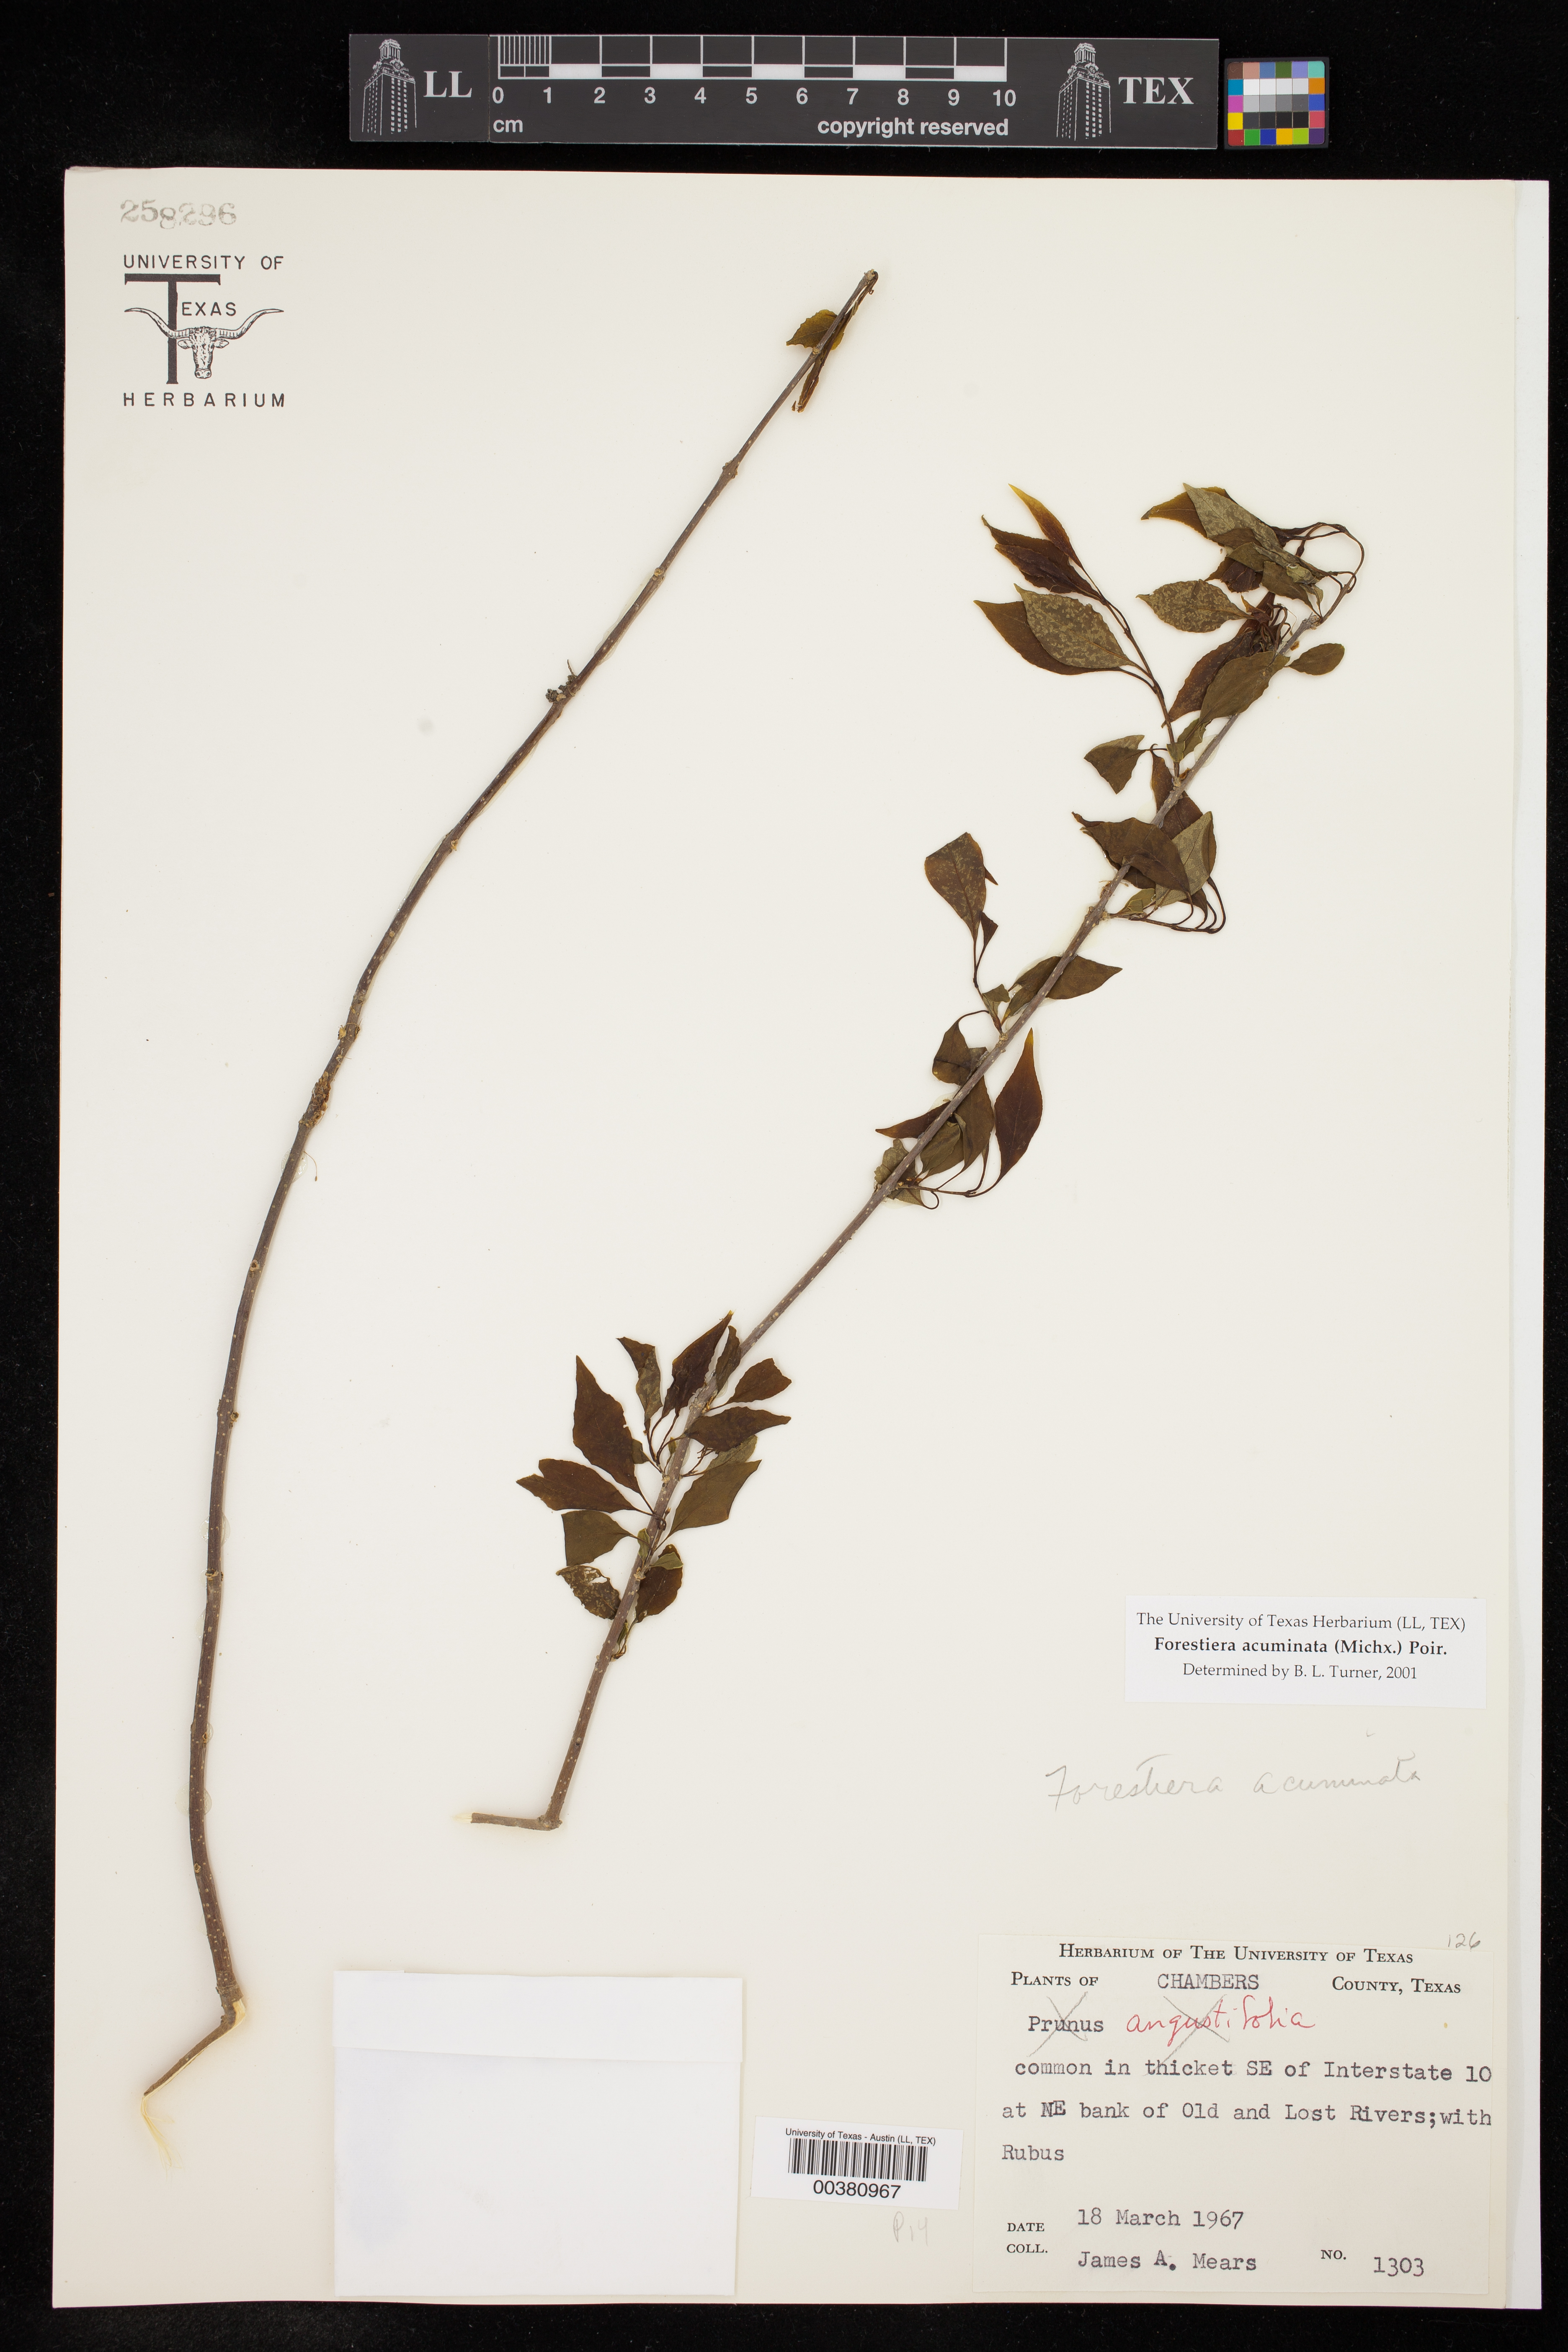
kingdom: Plantae
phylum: Tracheophyta
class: Magnoliopsida
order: Lamiales
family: Oleaceae
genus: Forestiera
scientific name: Forestiera acuminata
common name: Swamp-privet
